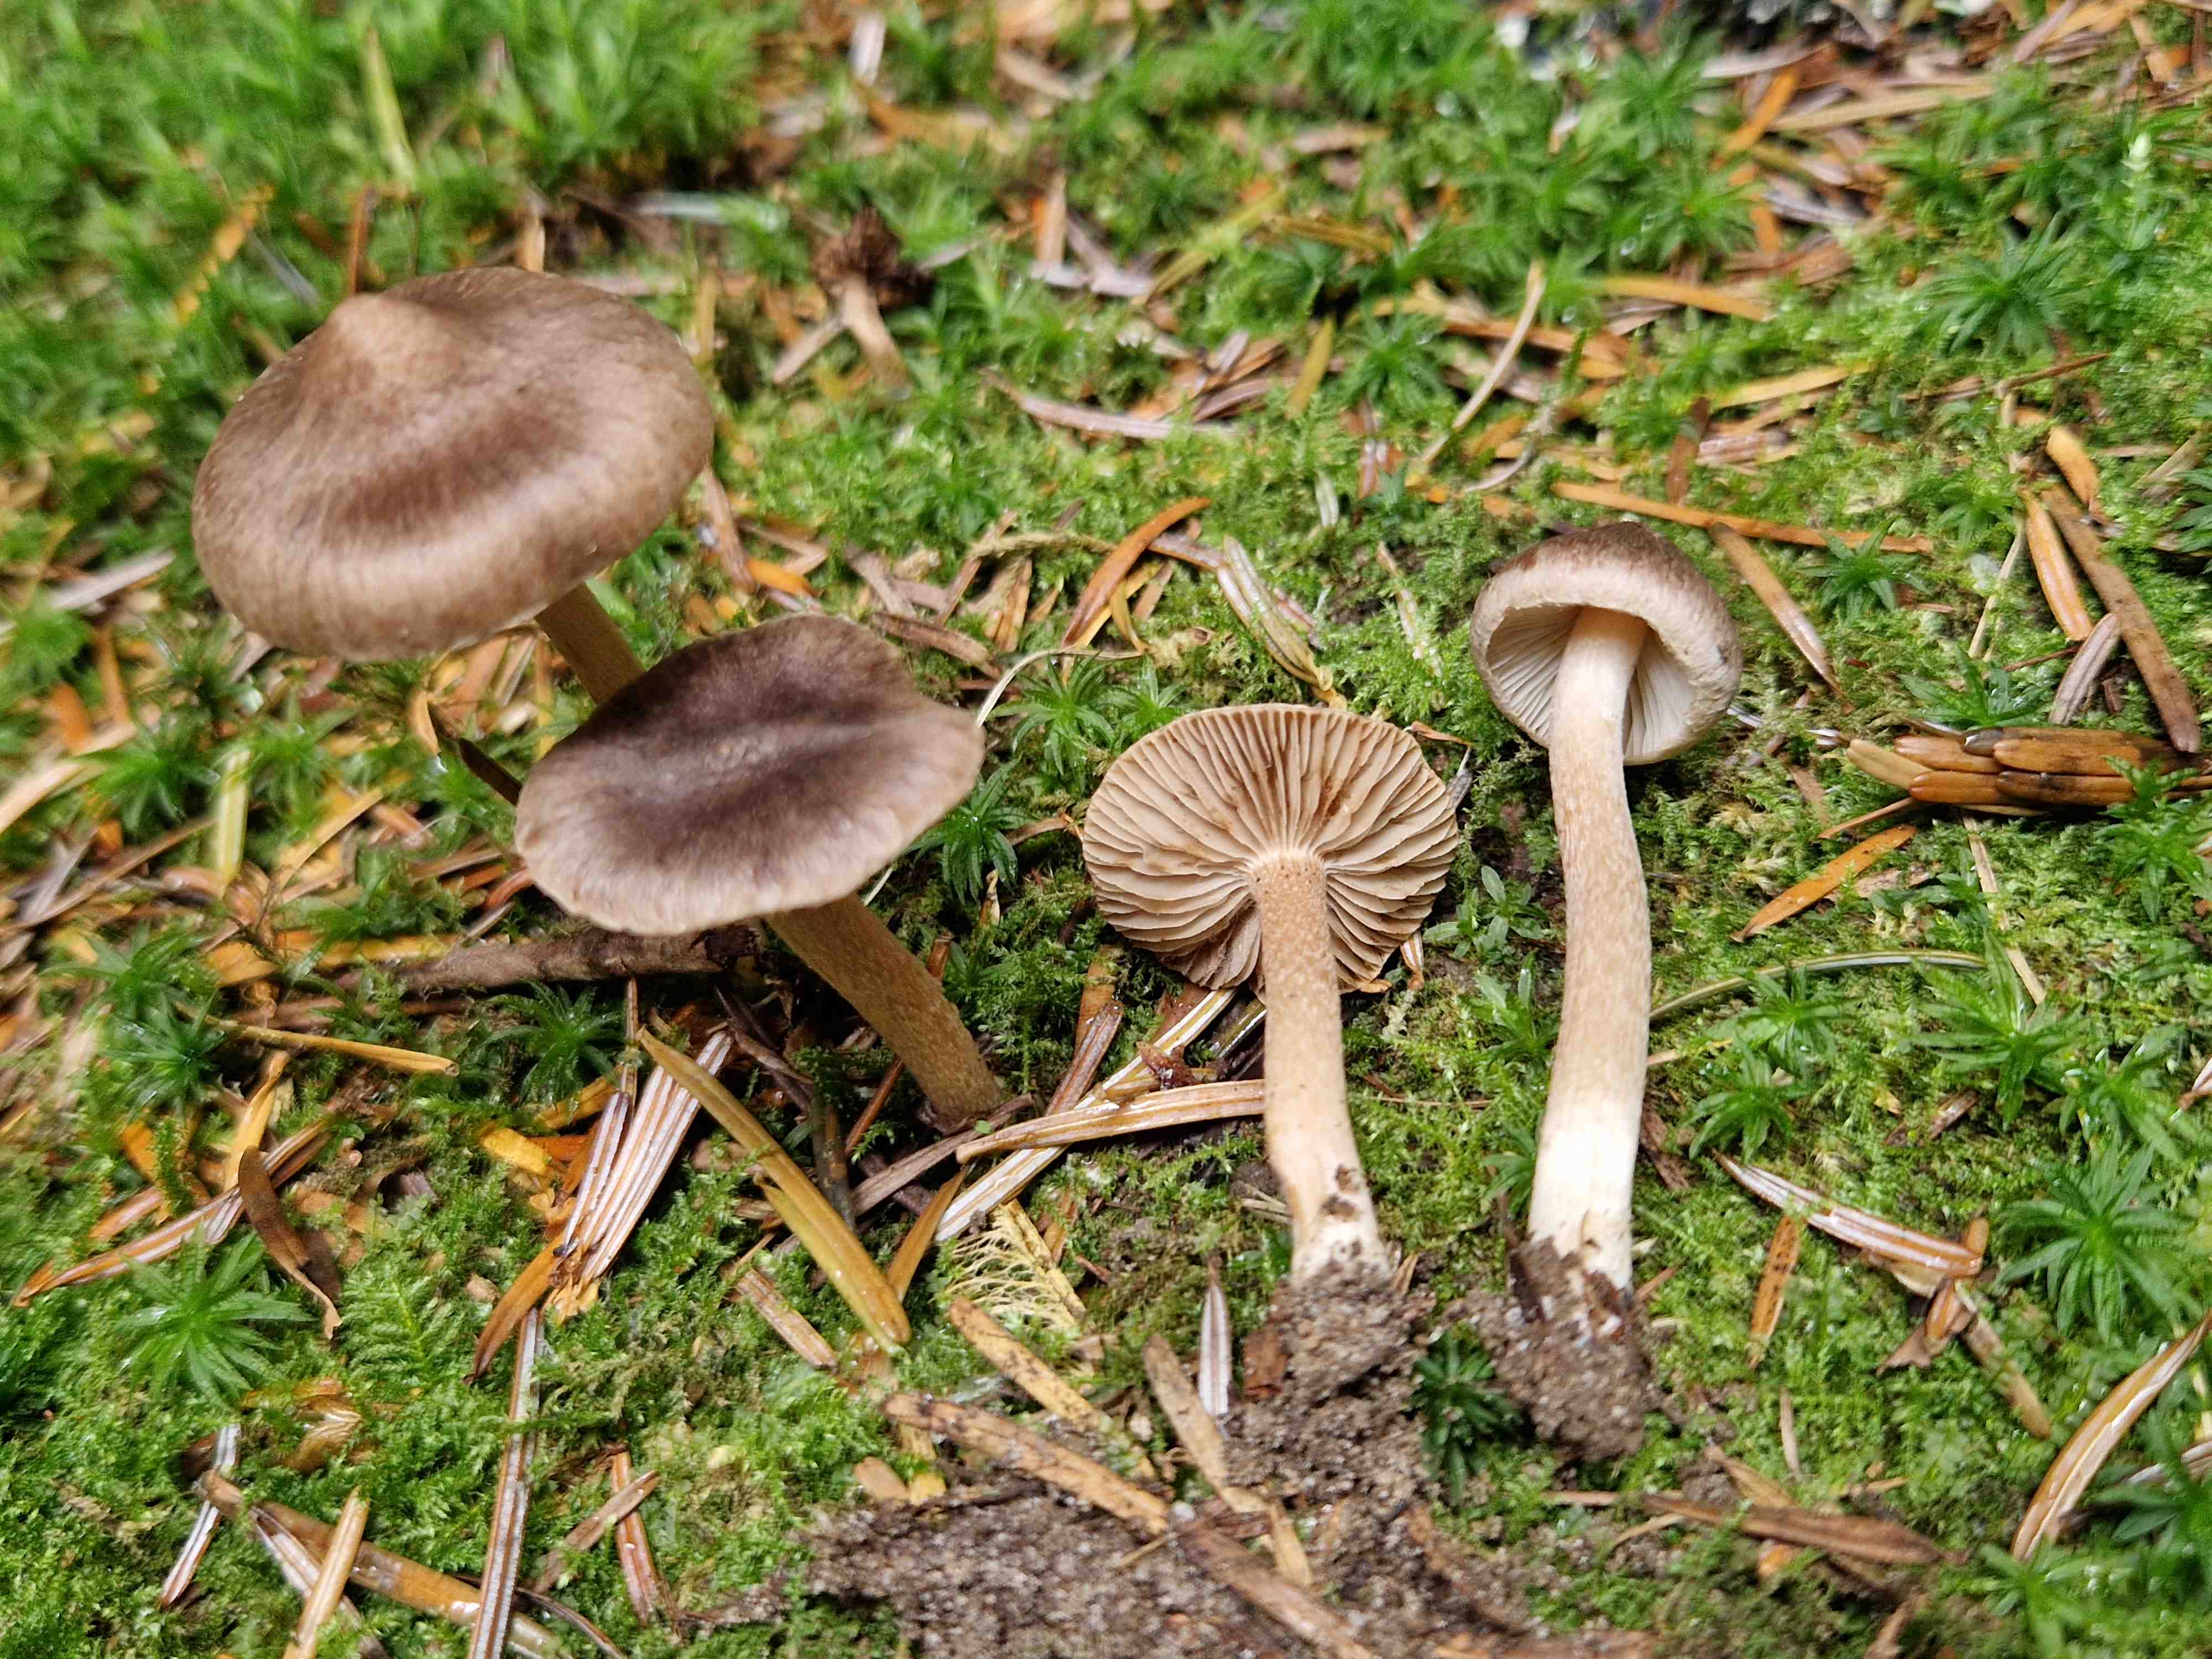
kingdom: Fungi
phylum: Basidiomycota
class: Agaricomycetes
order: Agaricales
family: Inocybaceae
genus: Inocybe
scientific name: Inocybe nitidiuscula
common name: skinnende trævlhat
